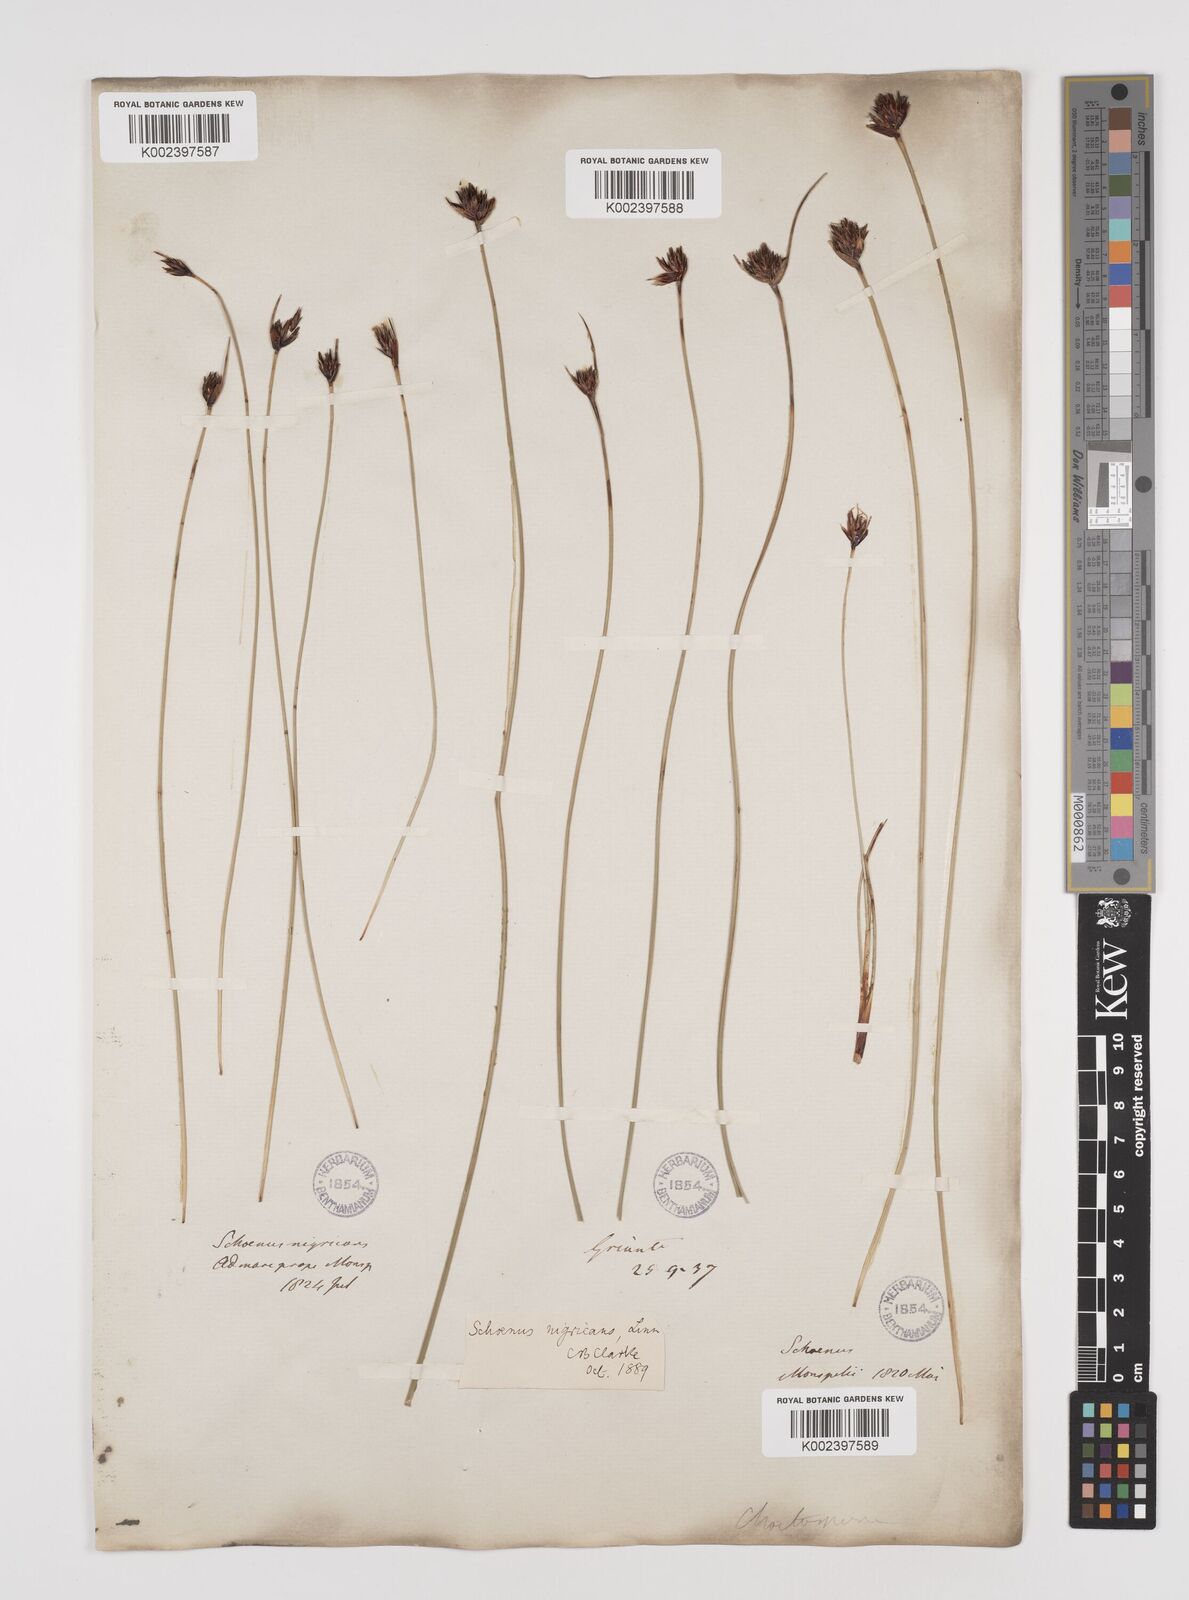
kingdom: Plantae
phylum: Tracheophyta
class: Liliopsida
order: Poales
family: Cyperaceae
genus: Schoenus
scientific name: Schoenus nigricans
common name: Black bog-rush
